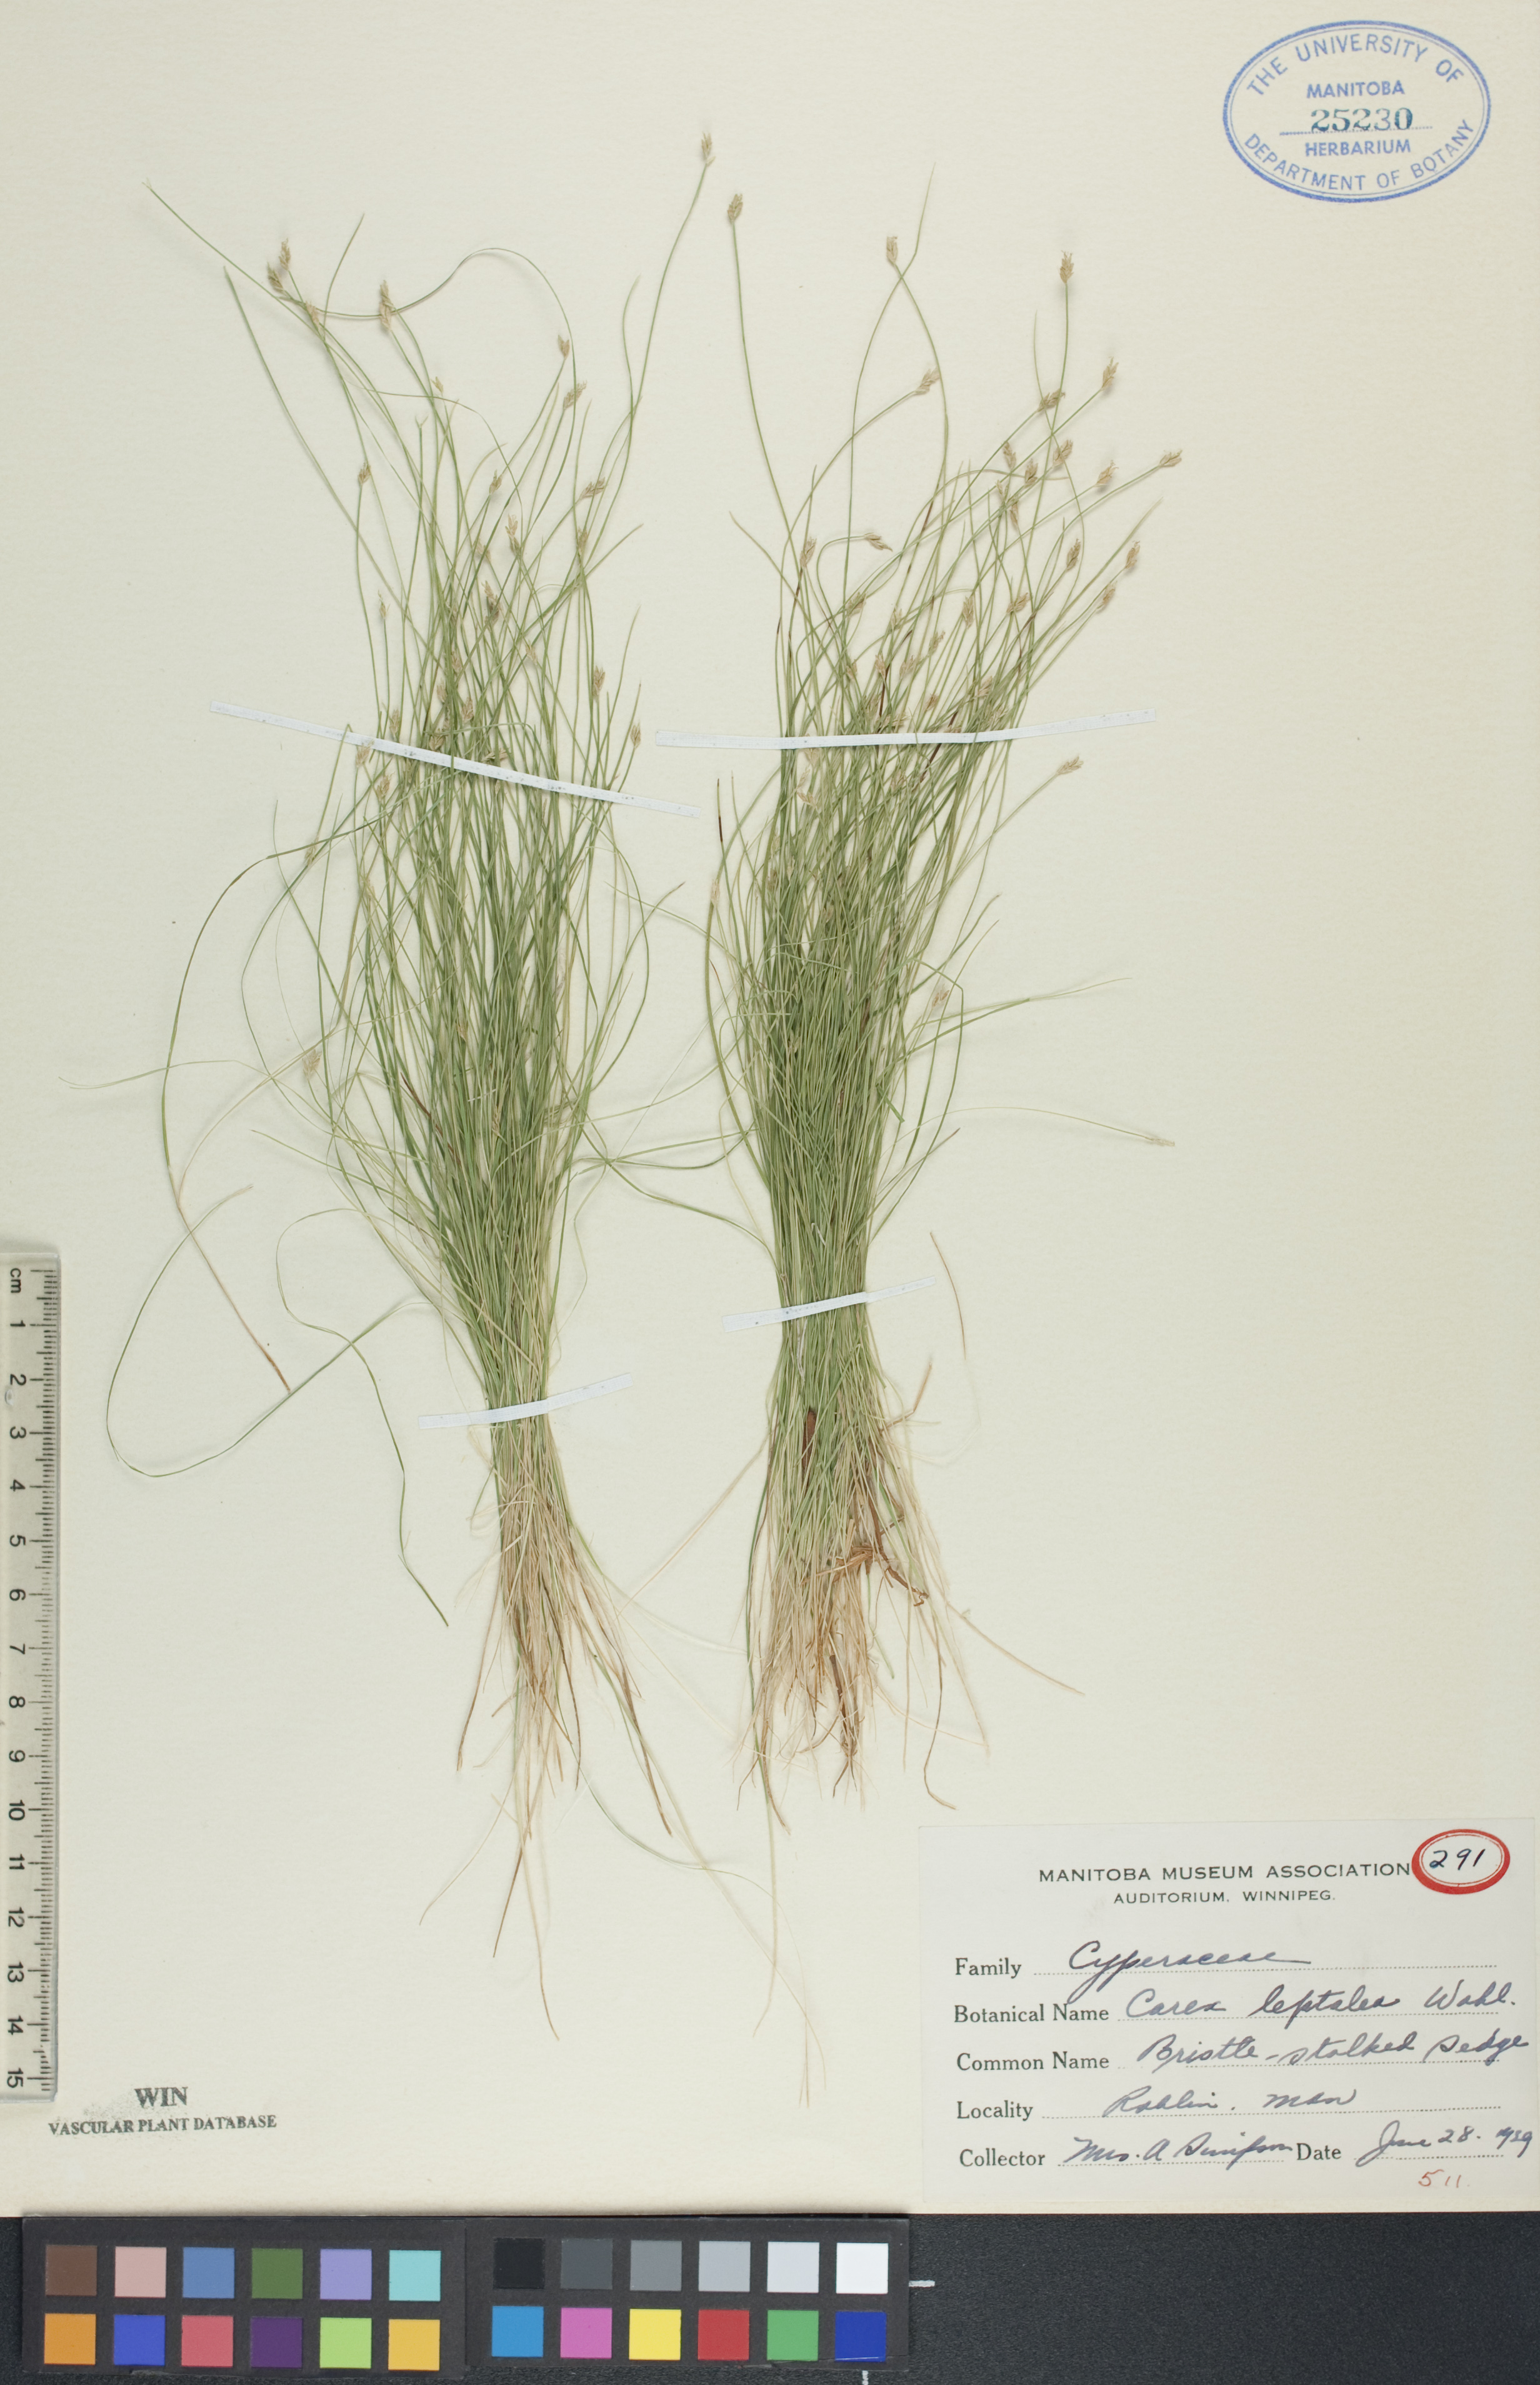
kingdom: Plantae
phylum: Tracheophyta
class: Liliopsida
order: Poales
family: Cyperaceae
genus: Carex
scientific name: Carex leptalea
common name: Bristly-stalked sedge
